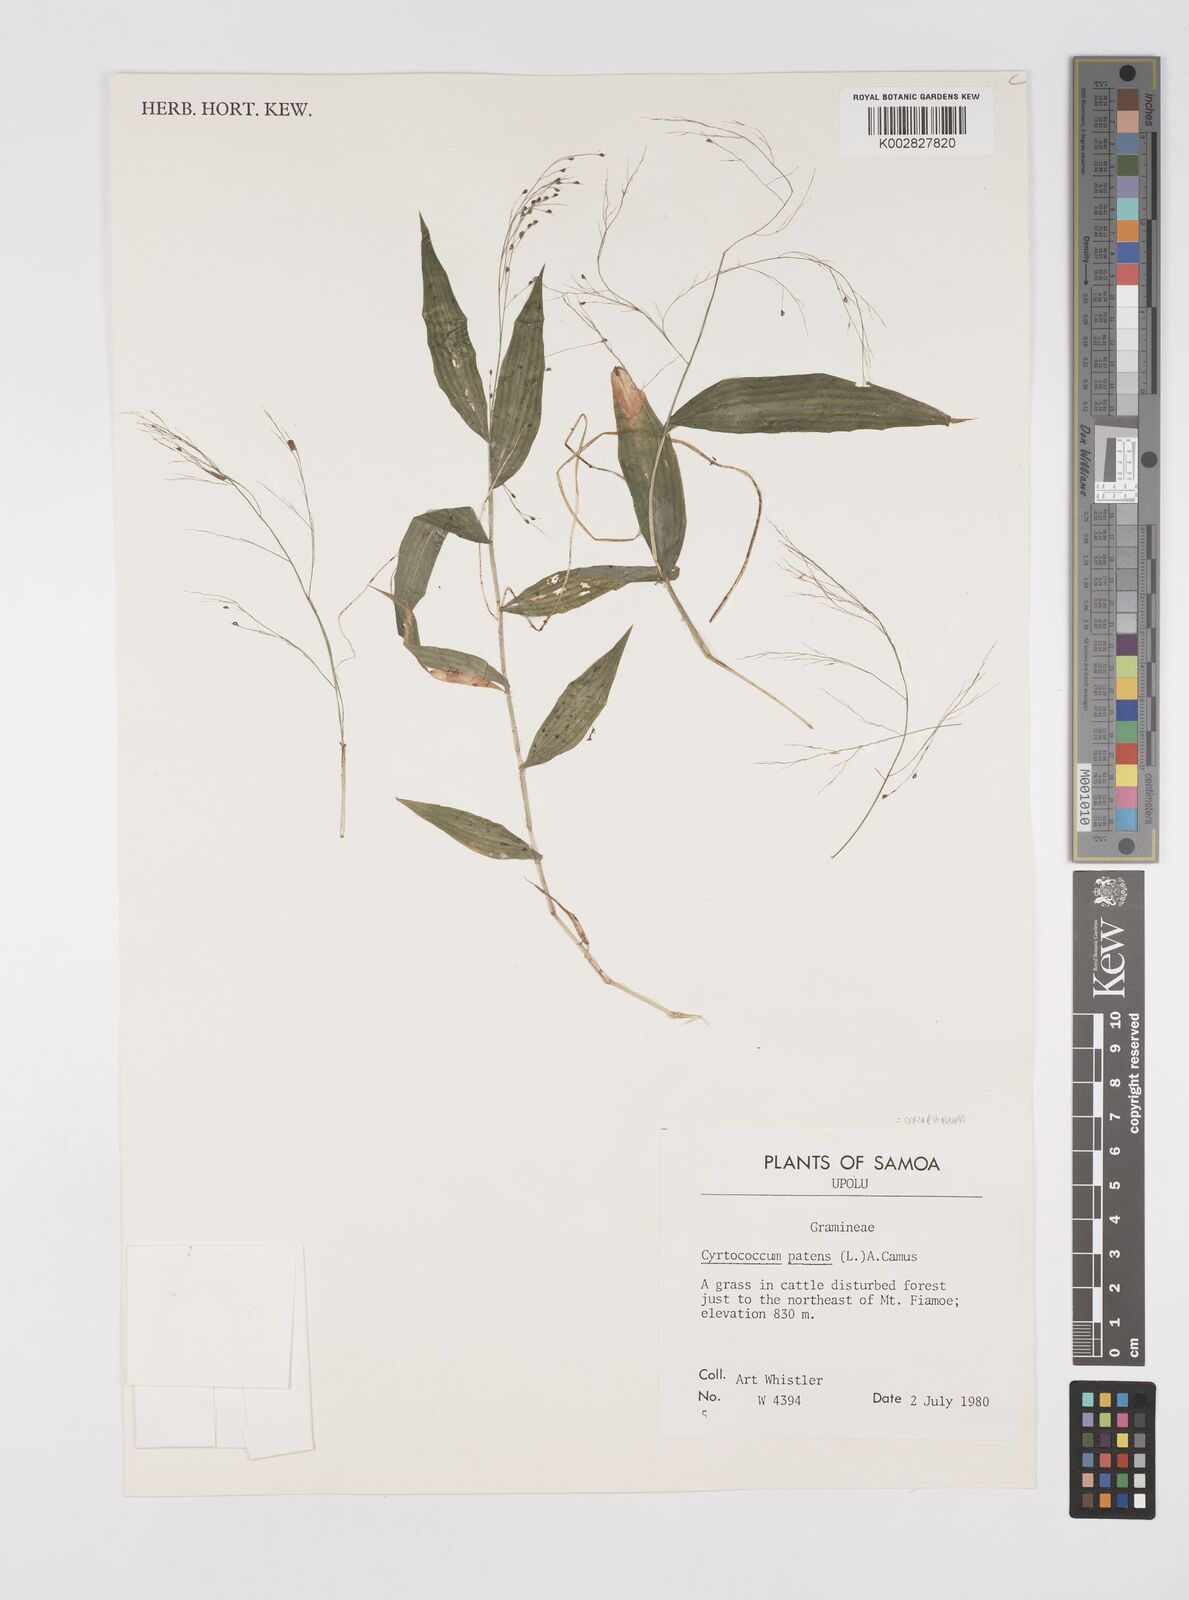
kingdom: Plantae
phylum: Tracheophyta
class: Liliopsida
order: Poales
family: Poaceae
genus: Cyrtococcum
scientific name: Cyrtococcum patens
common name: Broad-leaved bowgrass
